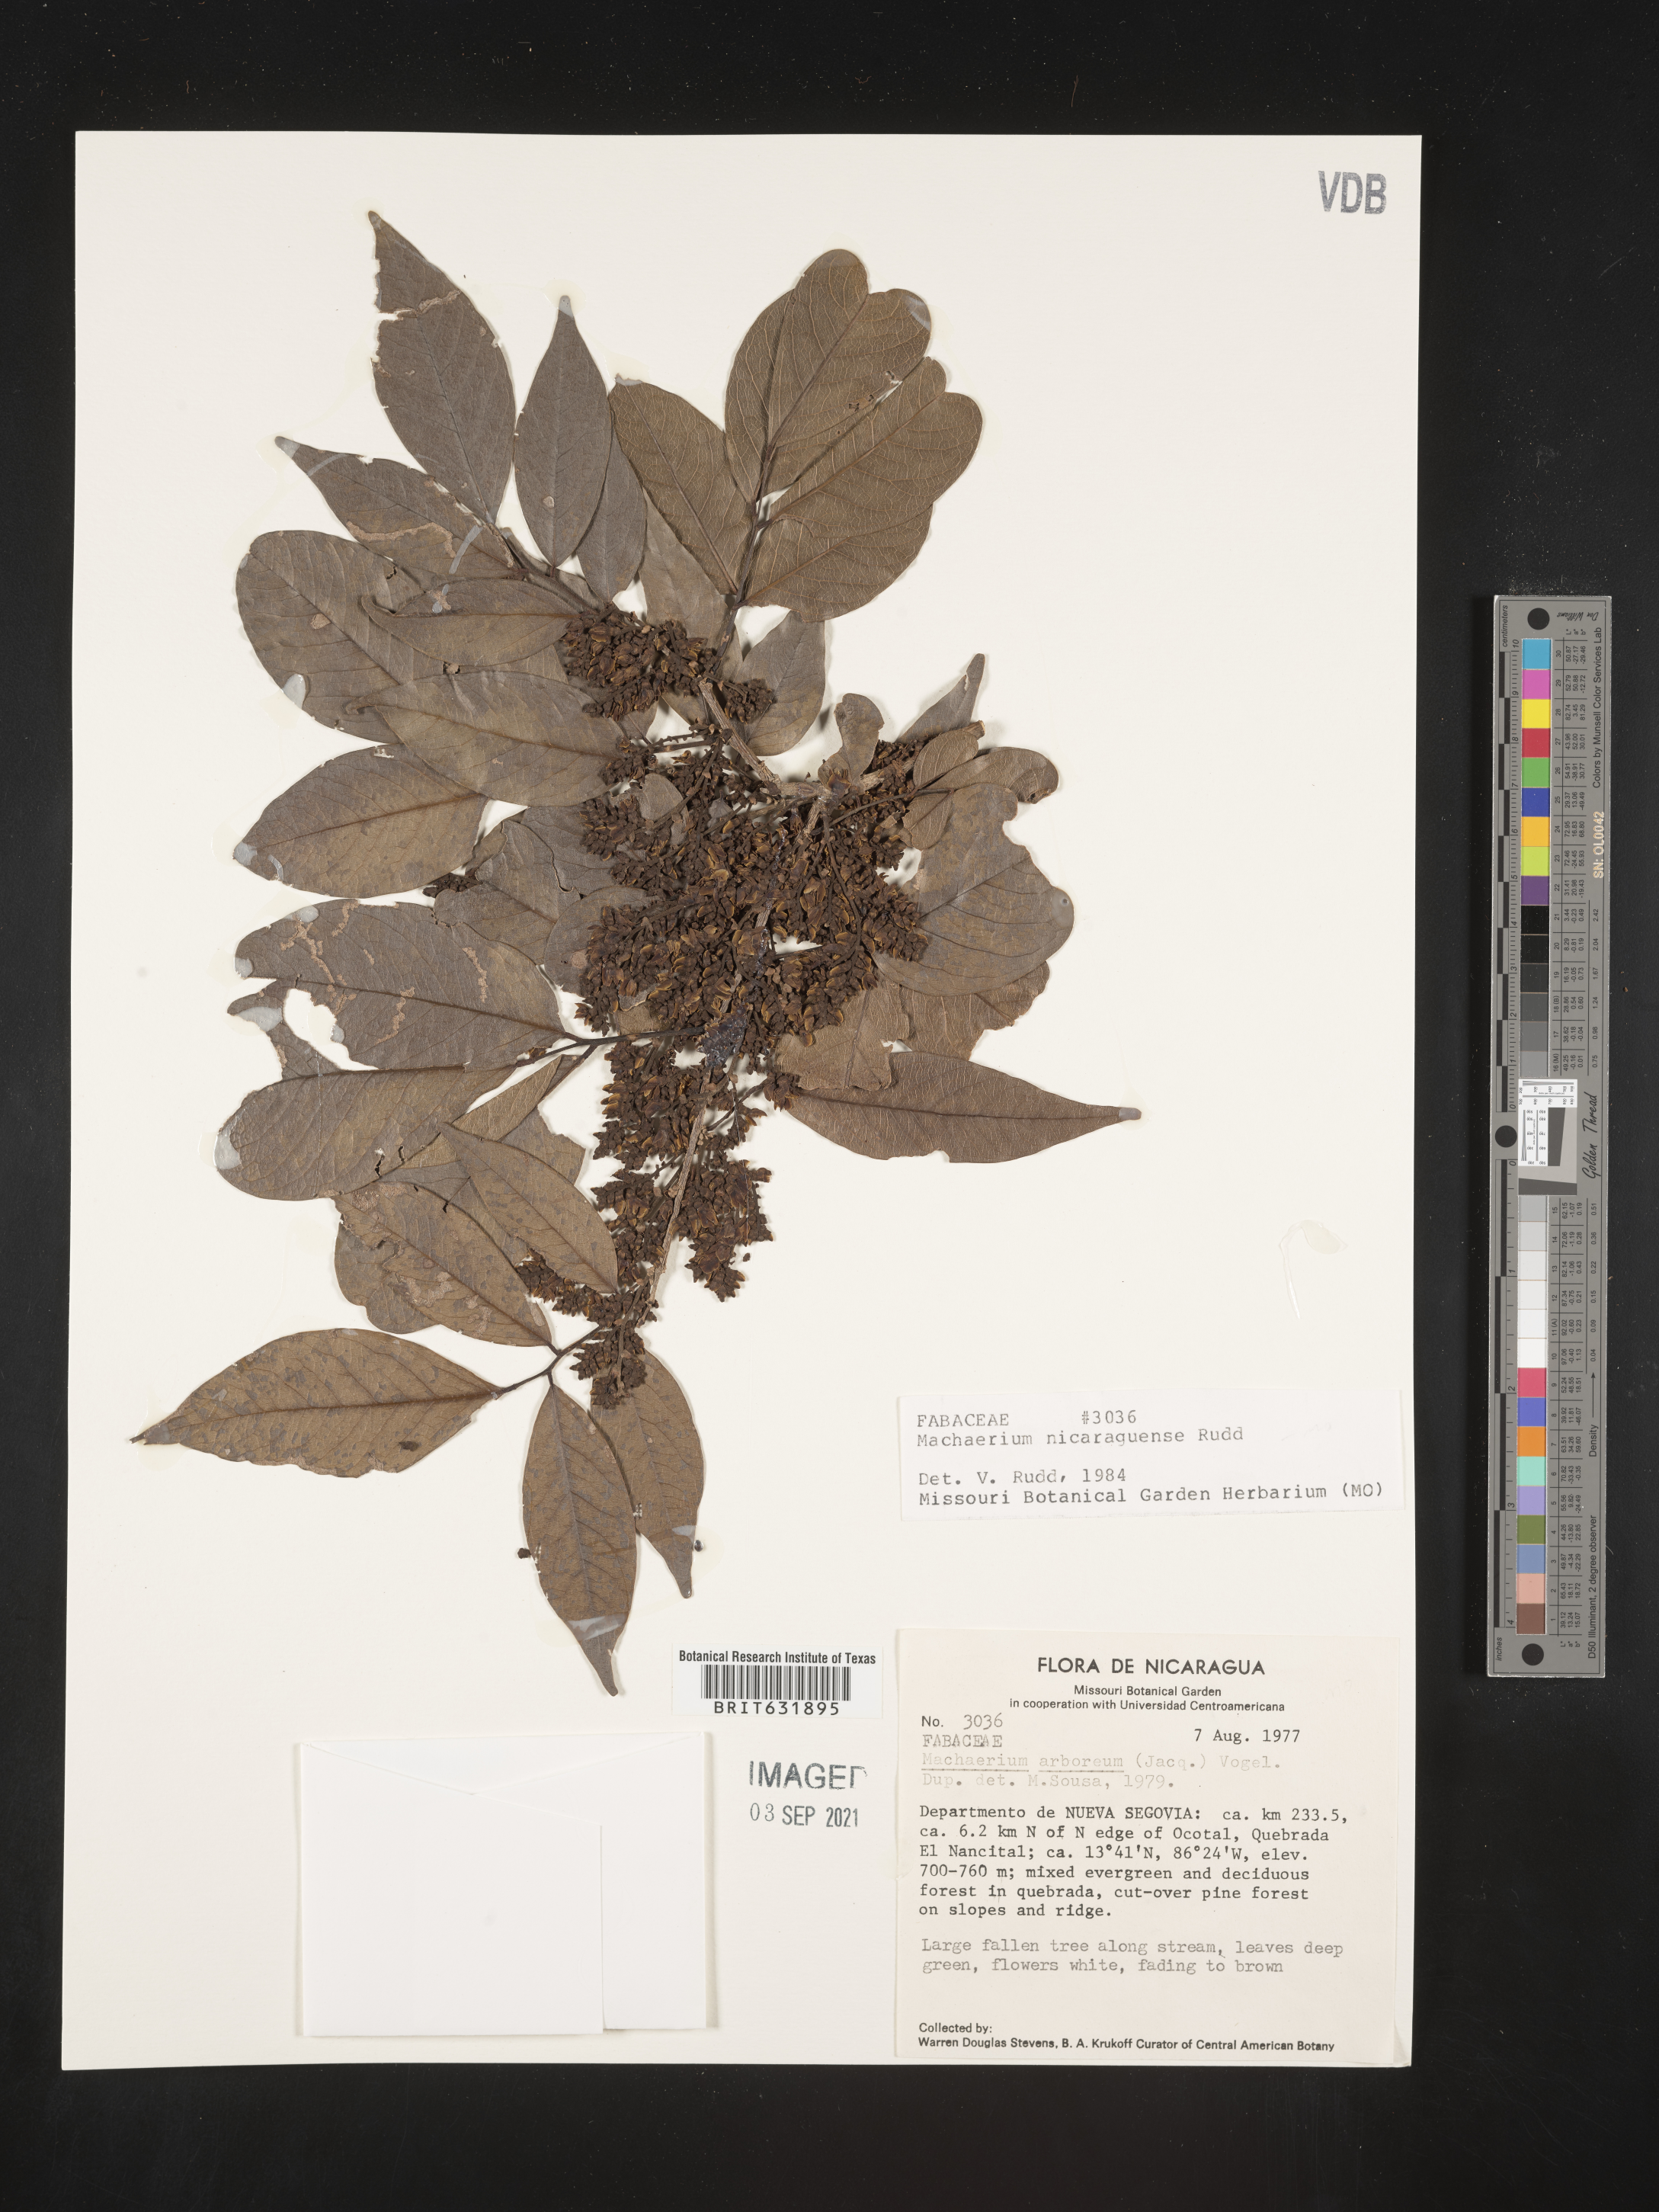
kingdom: Plantae
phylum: Tracheophyta
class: Magnoliopsida
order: Fabales
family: Fabaceae
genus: Machaerium
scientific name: Machaerium
